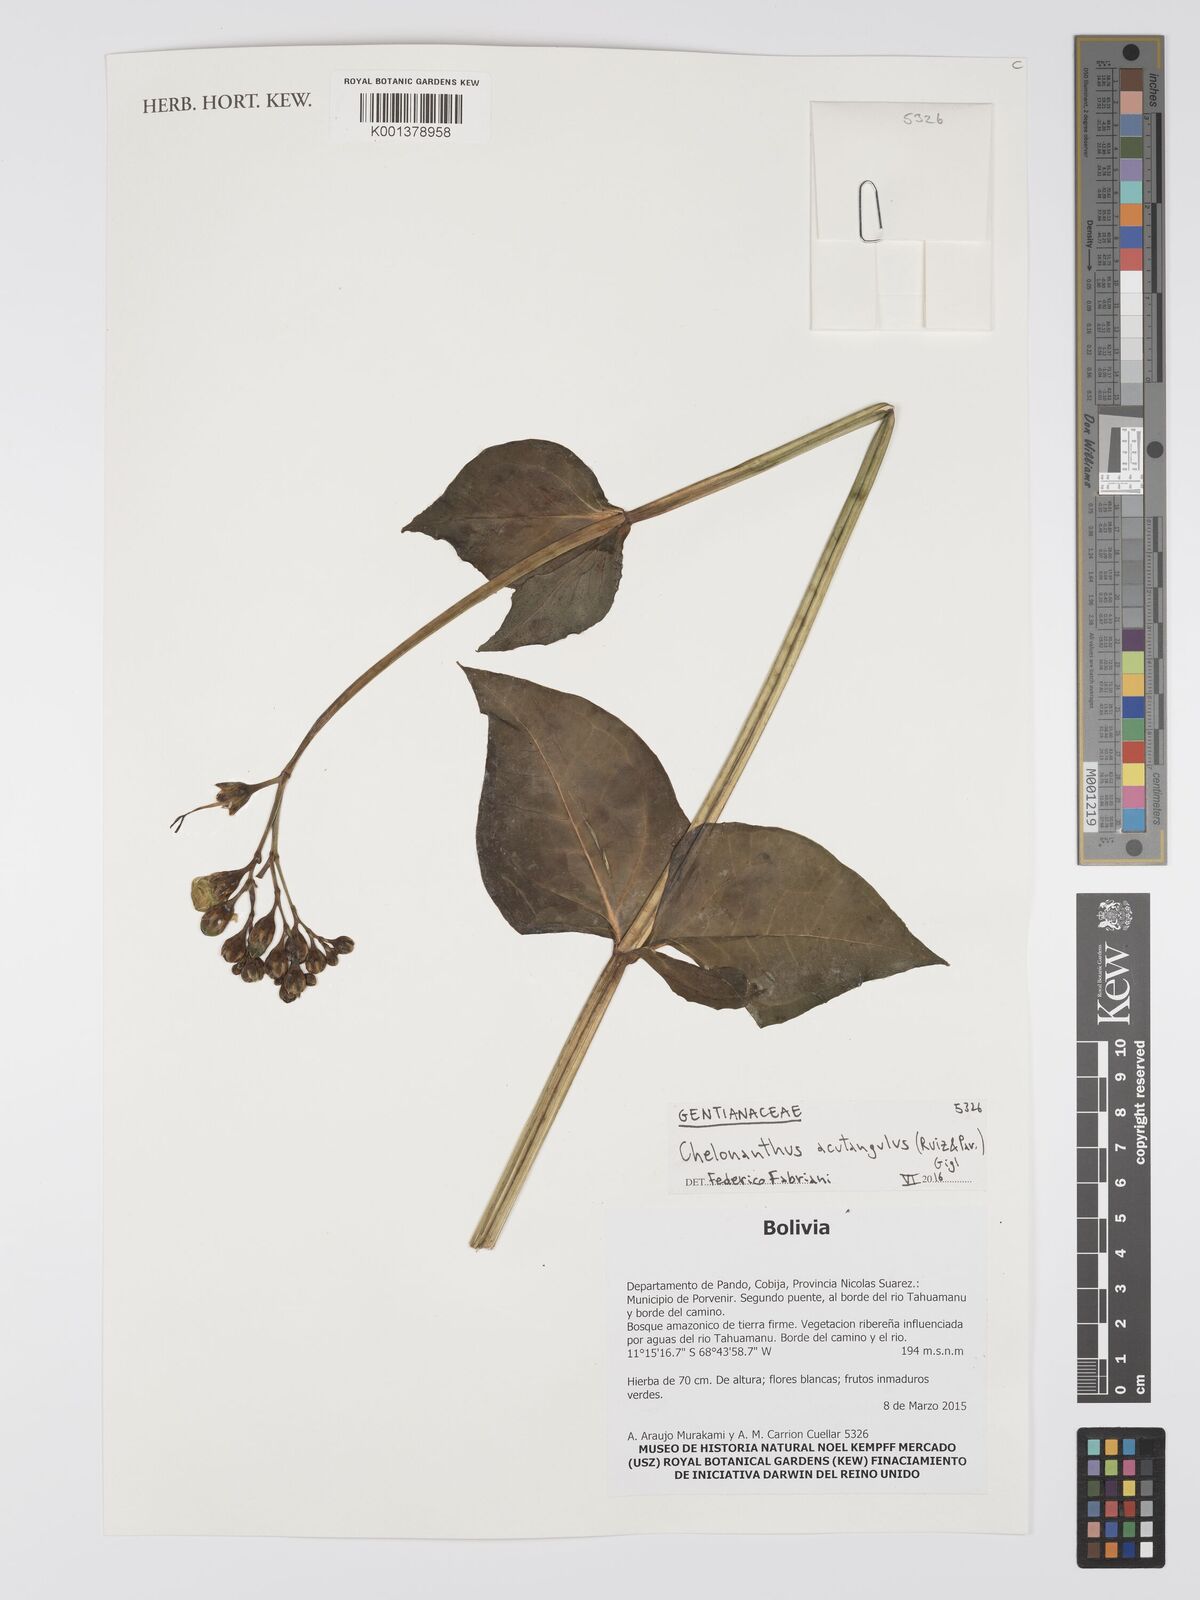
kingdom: Plantae
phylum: Tracheophyta
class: Magnoliopsida
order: Gentianales
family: Gentianaceae
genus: Chelonanthus
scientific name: Chelonanthus alatus
